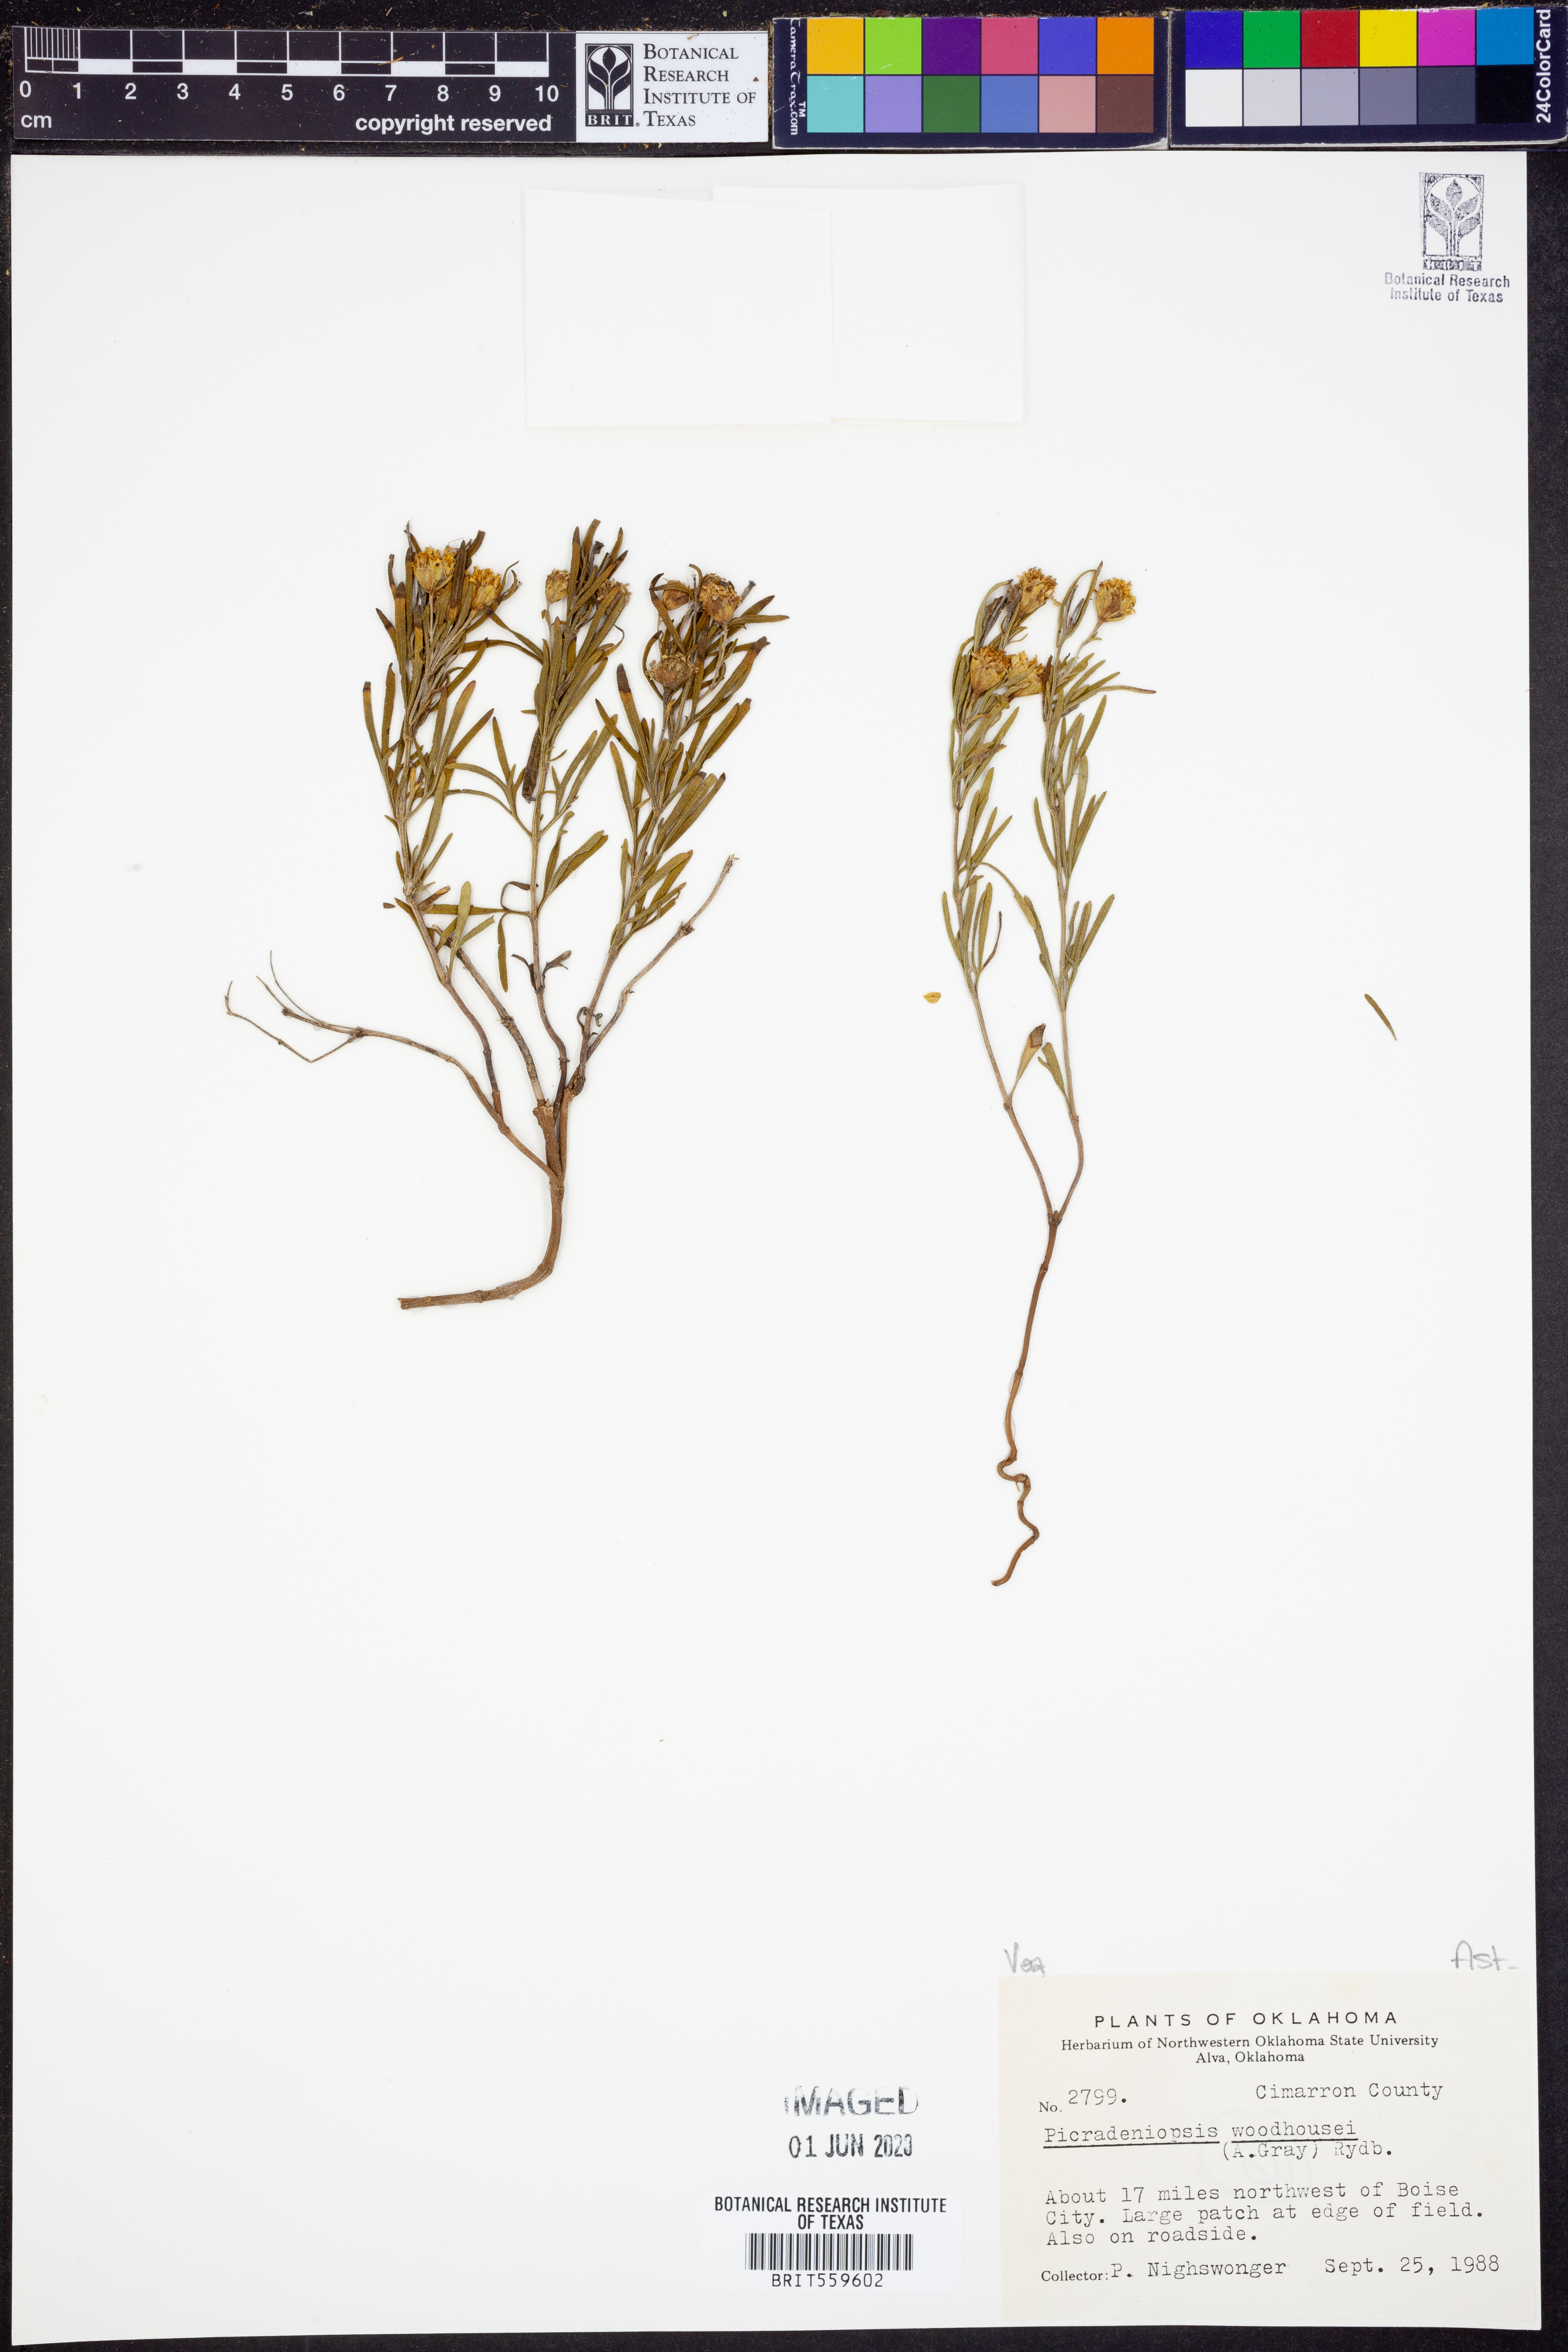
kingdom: Plantae
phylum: Tracheophyta
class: Magnoliopsida
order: Asterales
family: Asteraceae
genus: Picradeniopsis
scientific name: Picradeniopsis woodhousei
